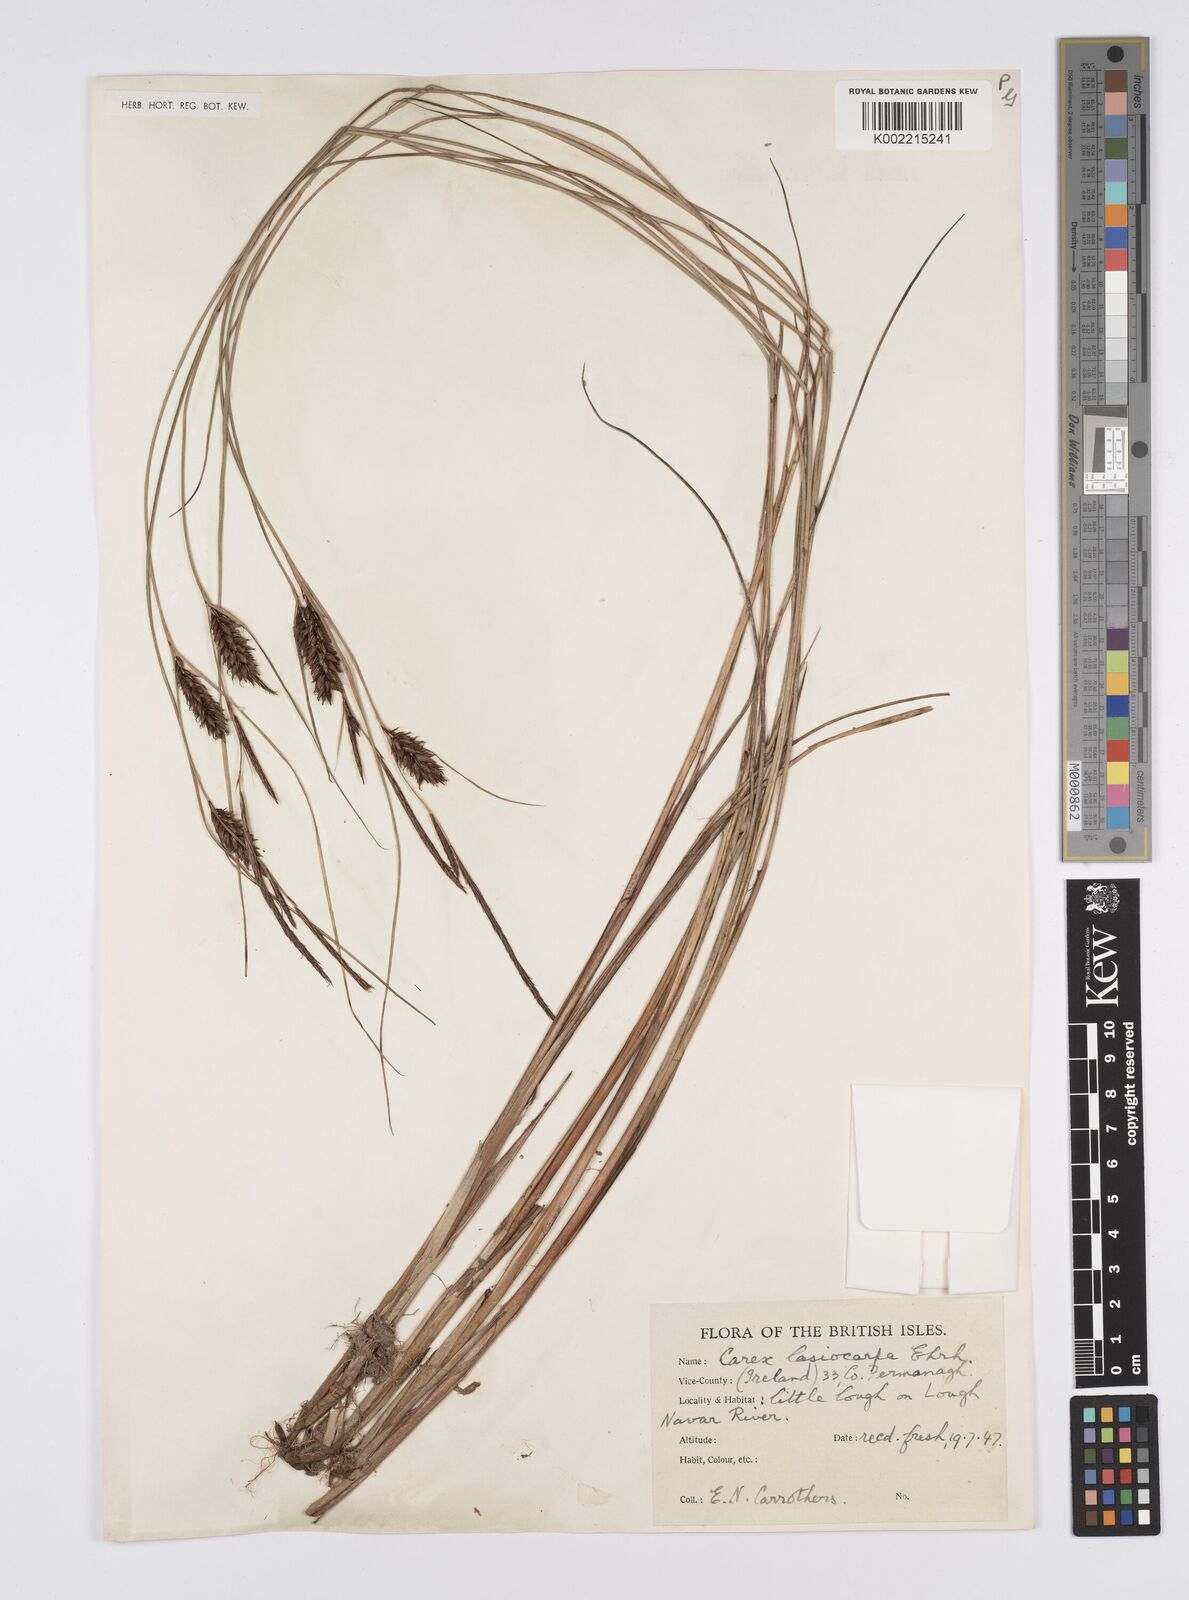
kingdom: Plantae
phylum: Tracheophyta
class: Liliopsida
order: Poales
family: Cyperaceae
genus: Carex
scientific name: Carex lasiocarpa
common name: Slender sedge
